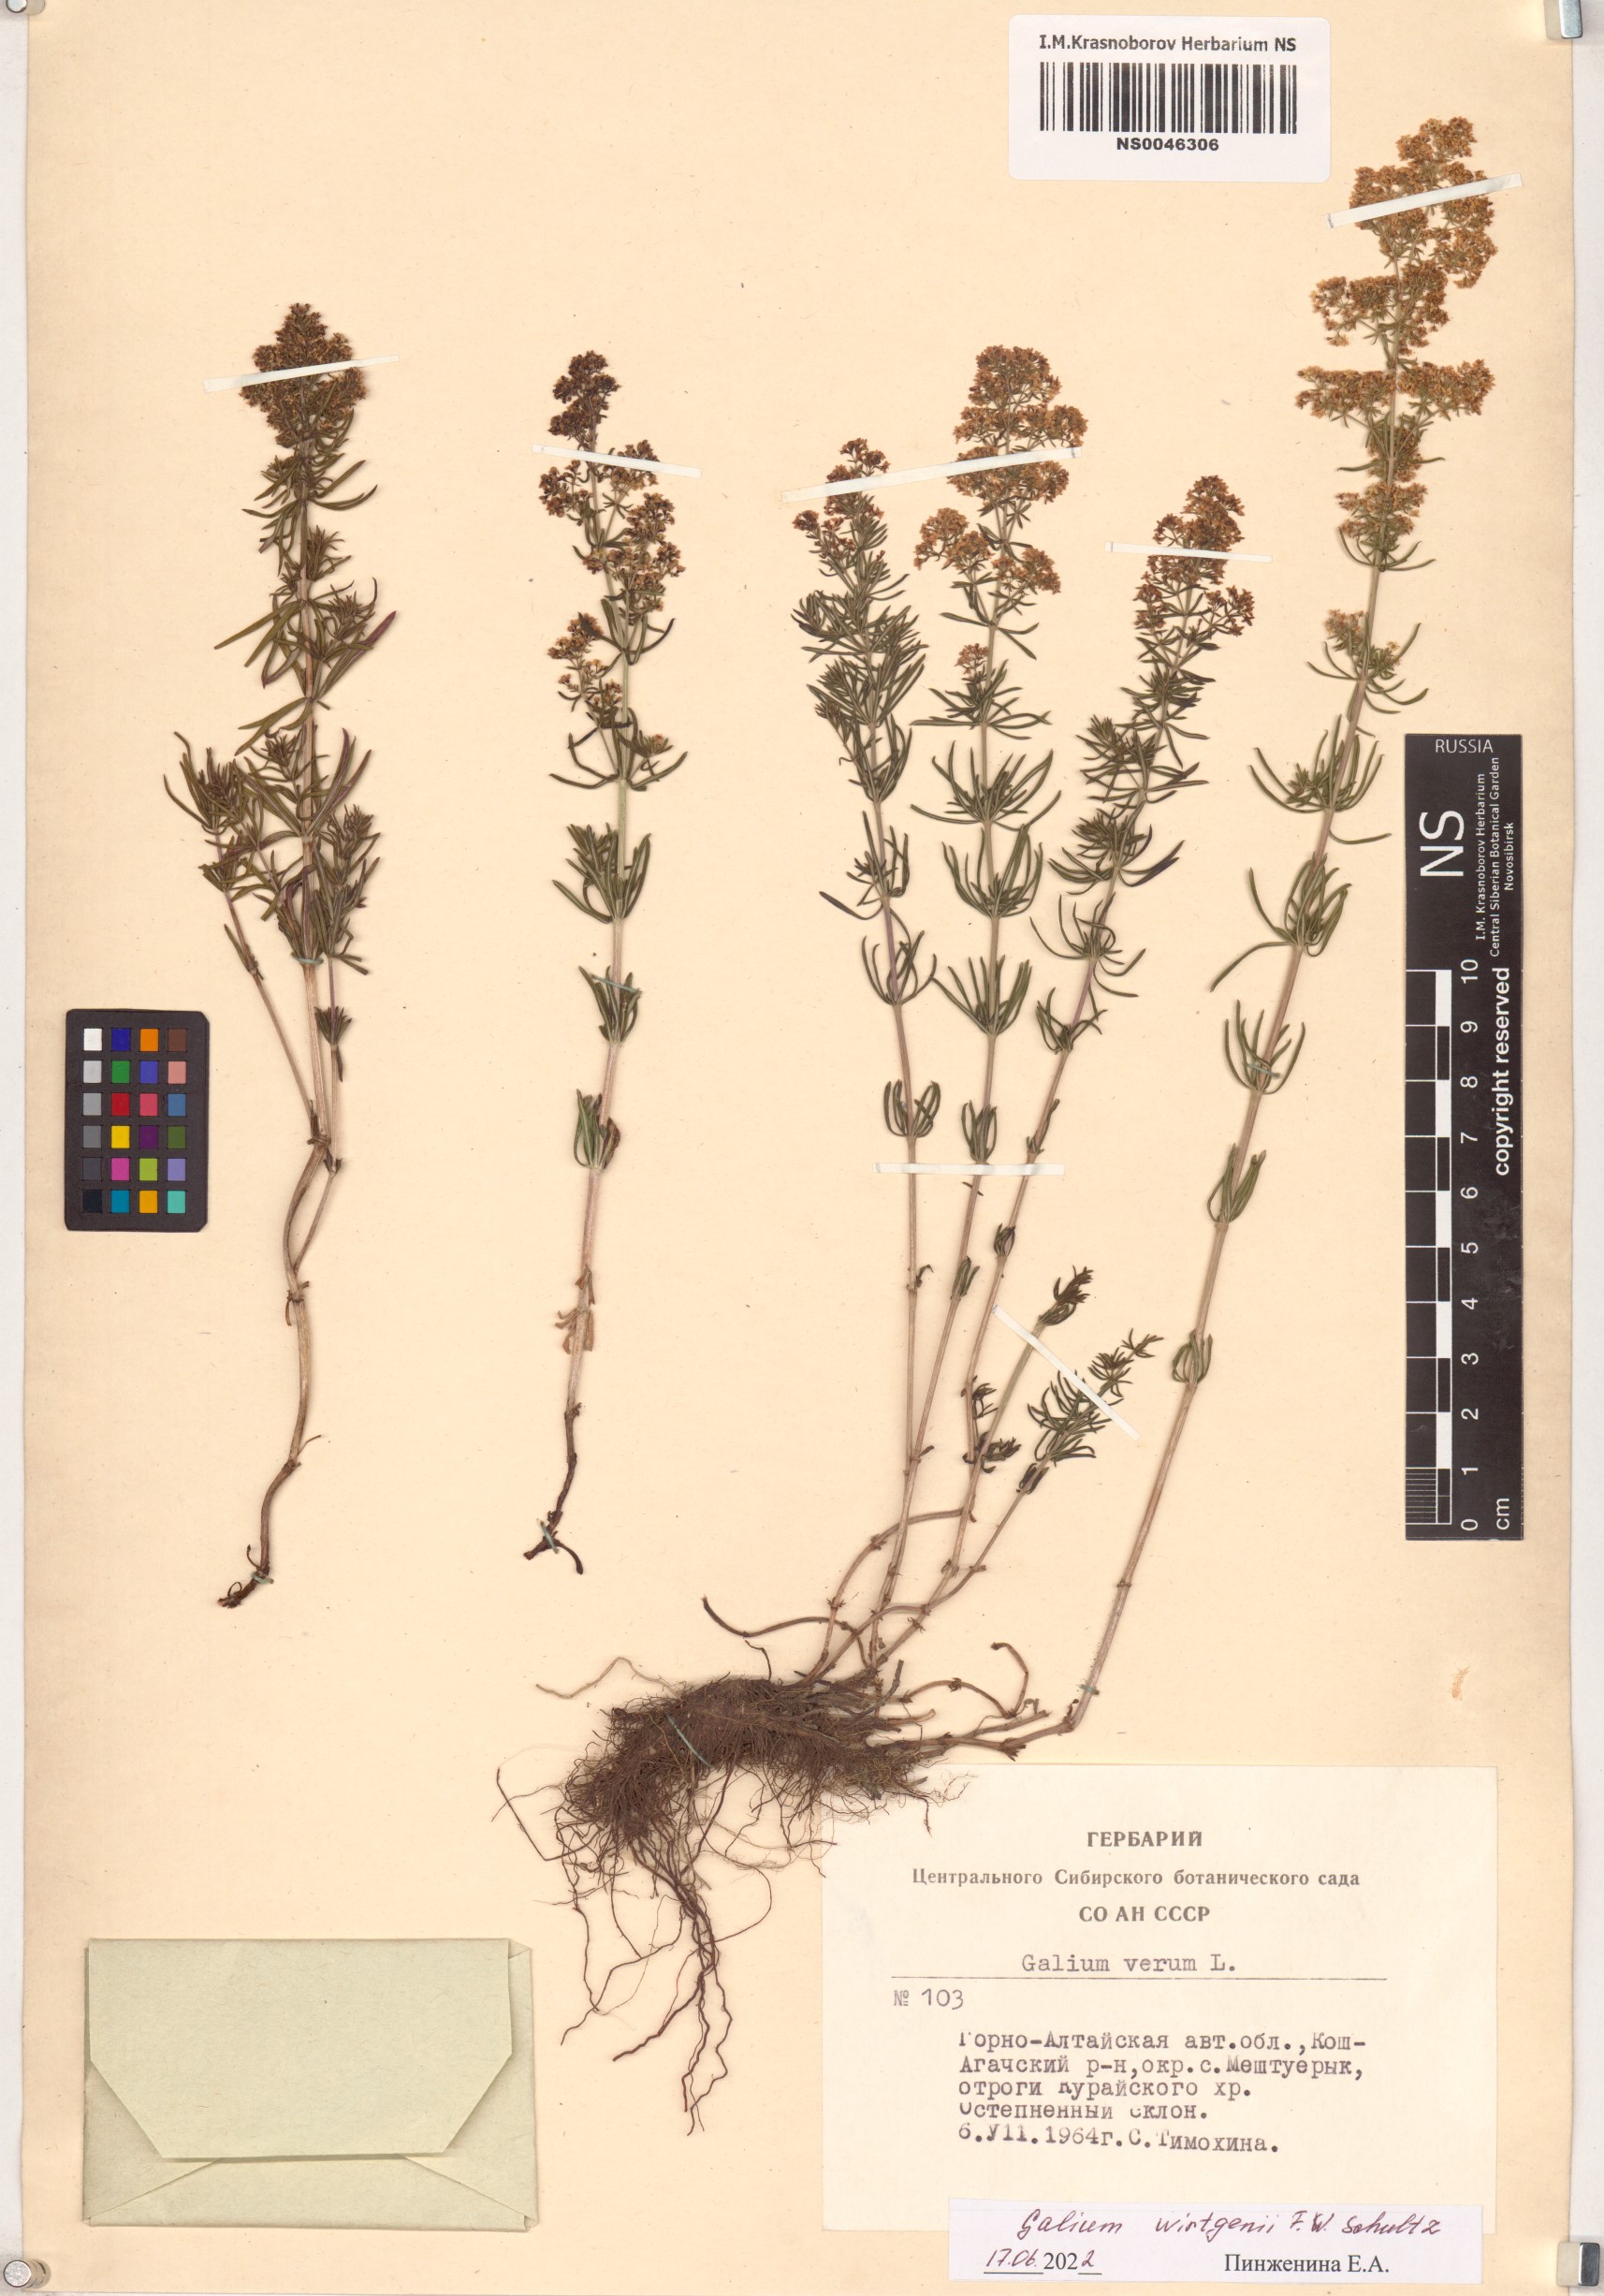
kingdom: Plantae
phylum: Tracheophyta
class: Magnoliopsida
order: Gentianales
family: Rubiaceae
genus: Galium
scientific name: Galium verum
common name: Lady's bedstraw
